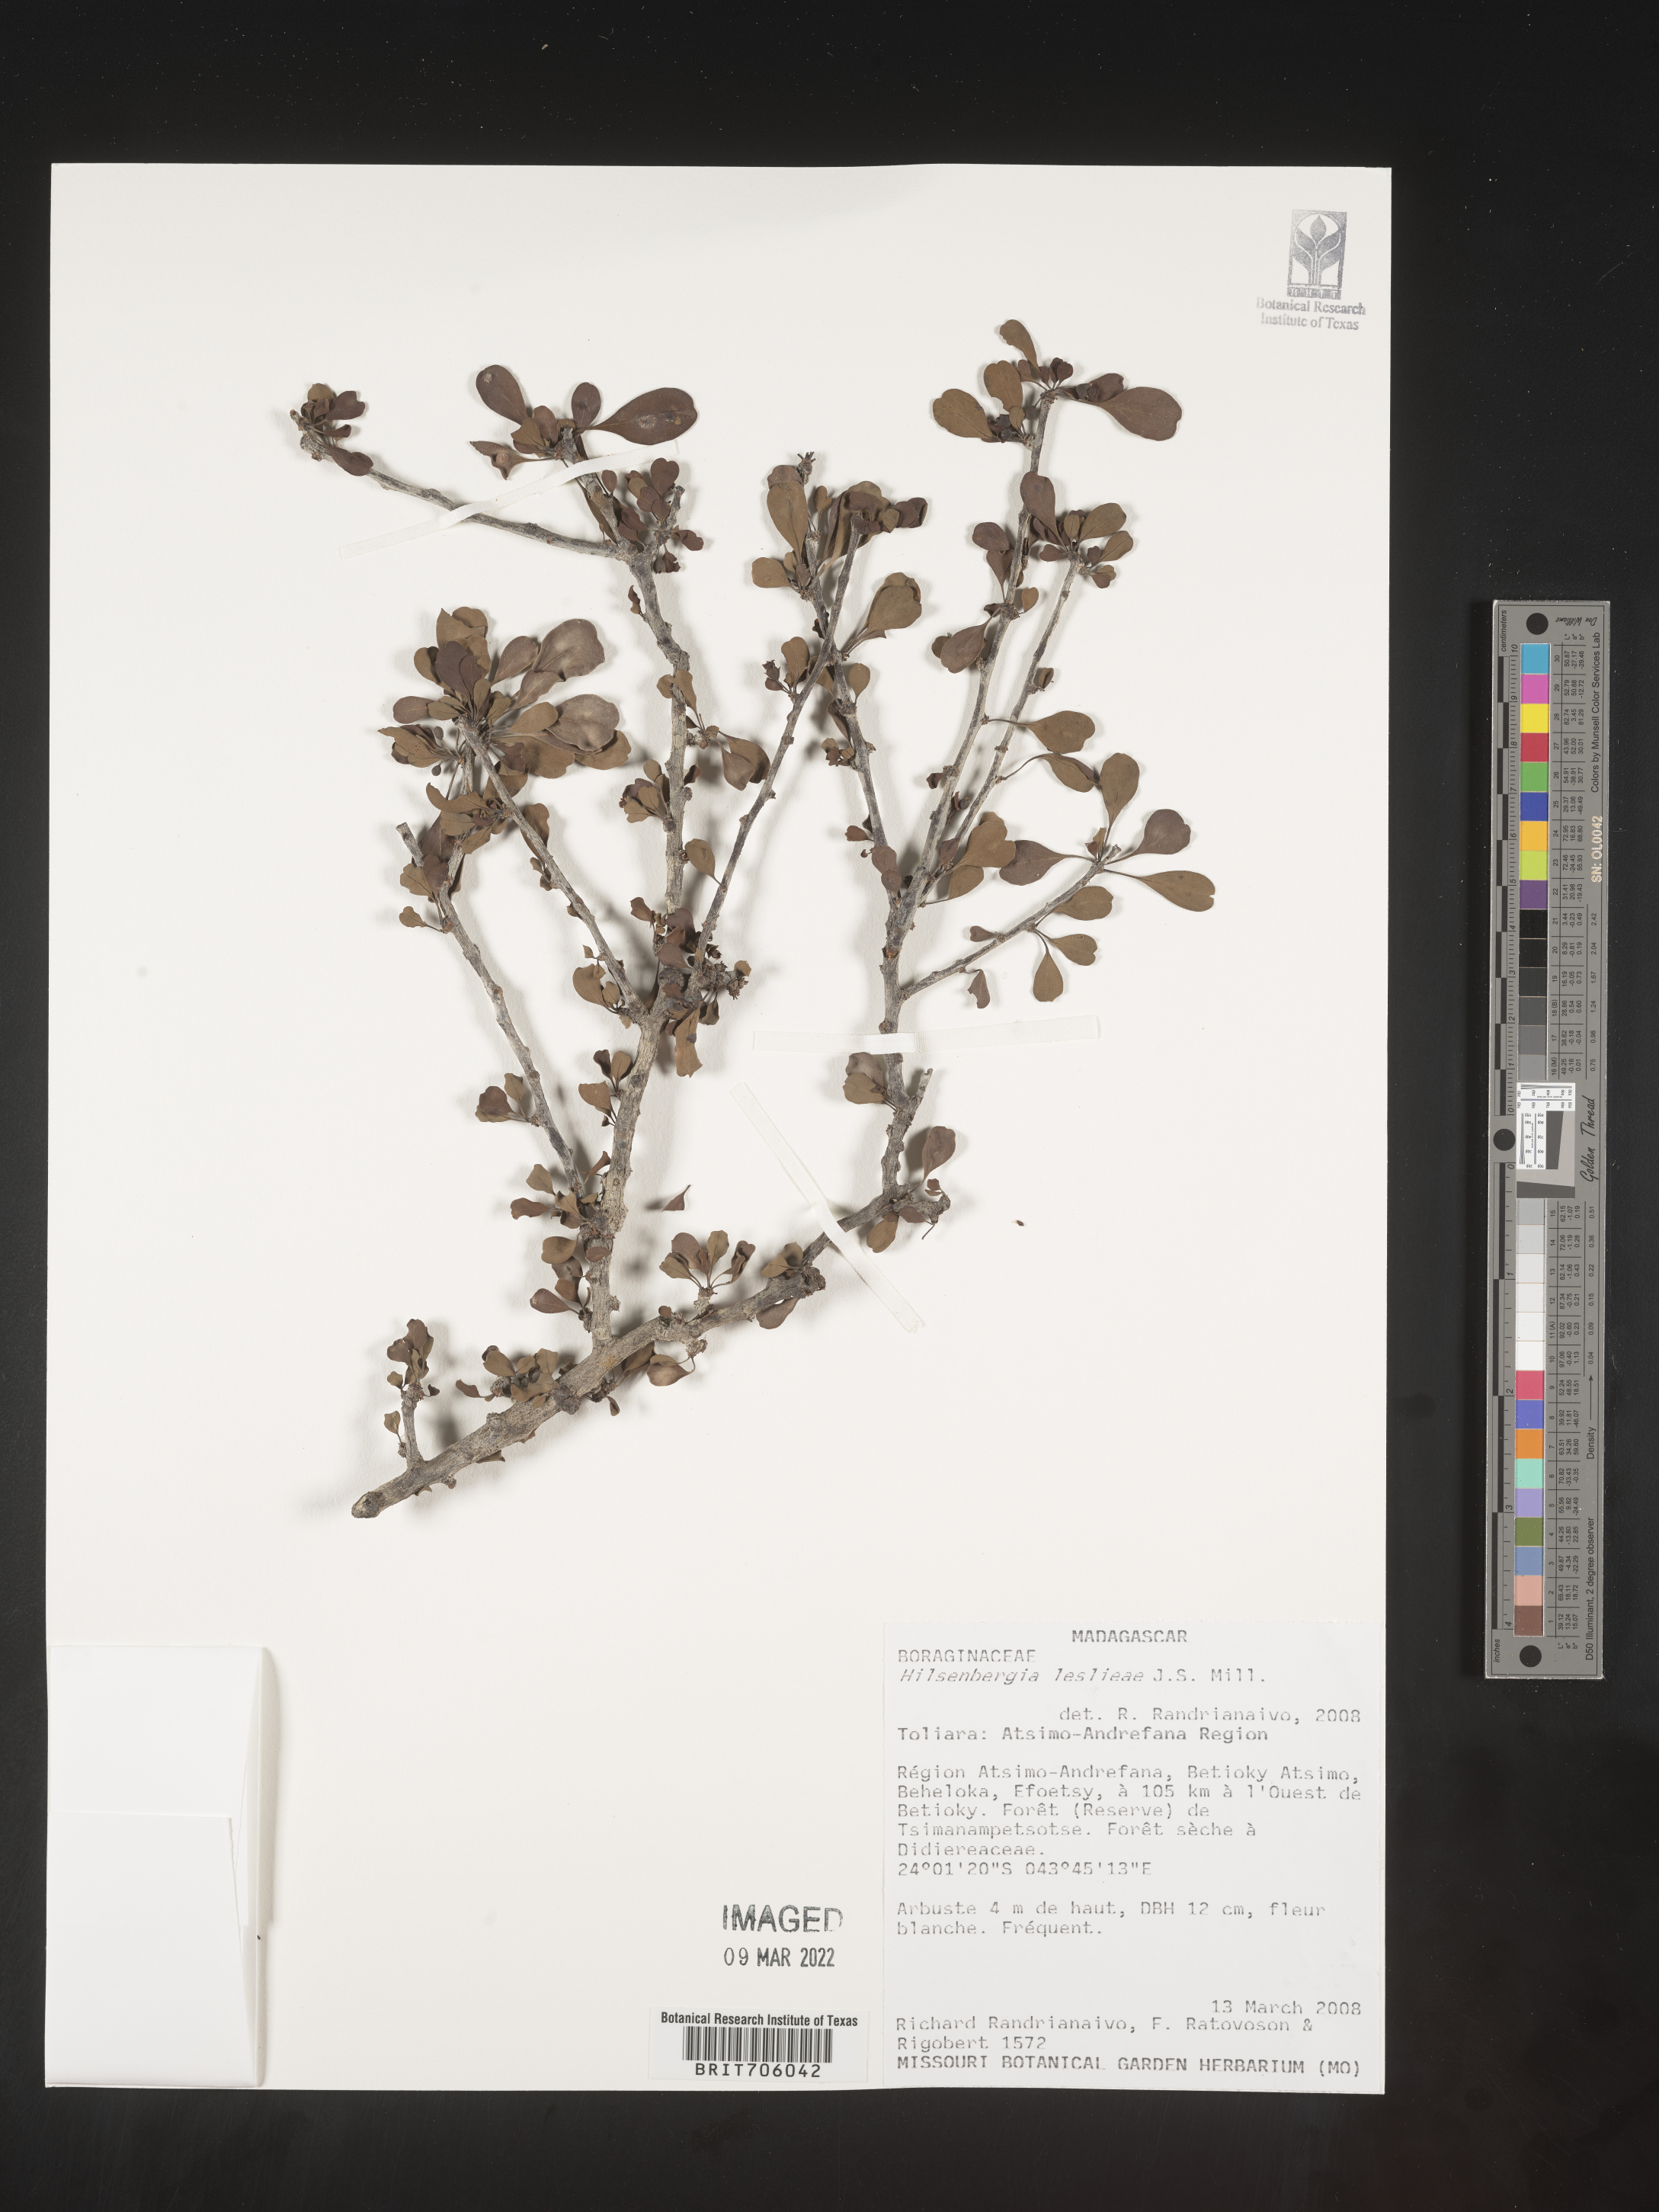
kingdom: Plantae
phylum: Tracheophyta
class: Magnoliopsida
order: Boraginales
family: Ehretiaceae
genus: Bourreria
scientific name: Bourreria
